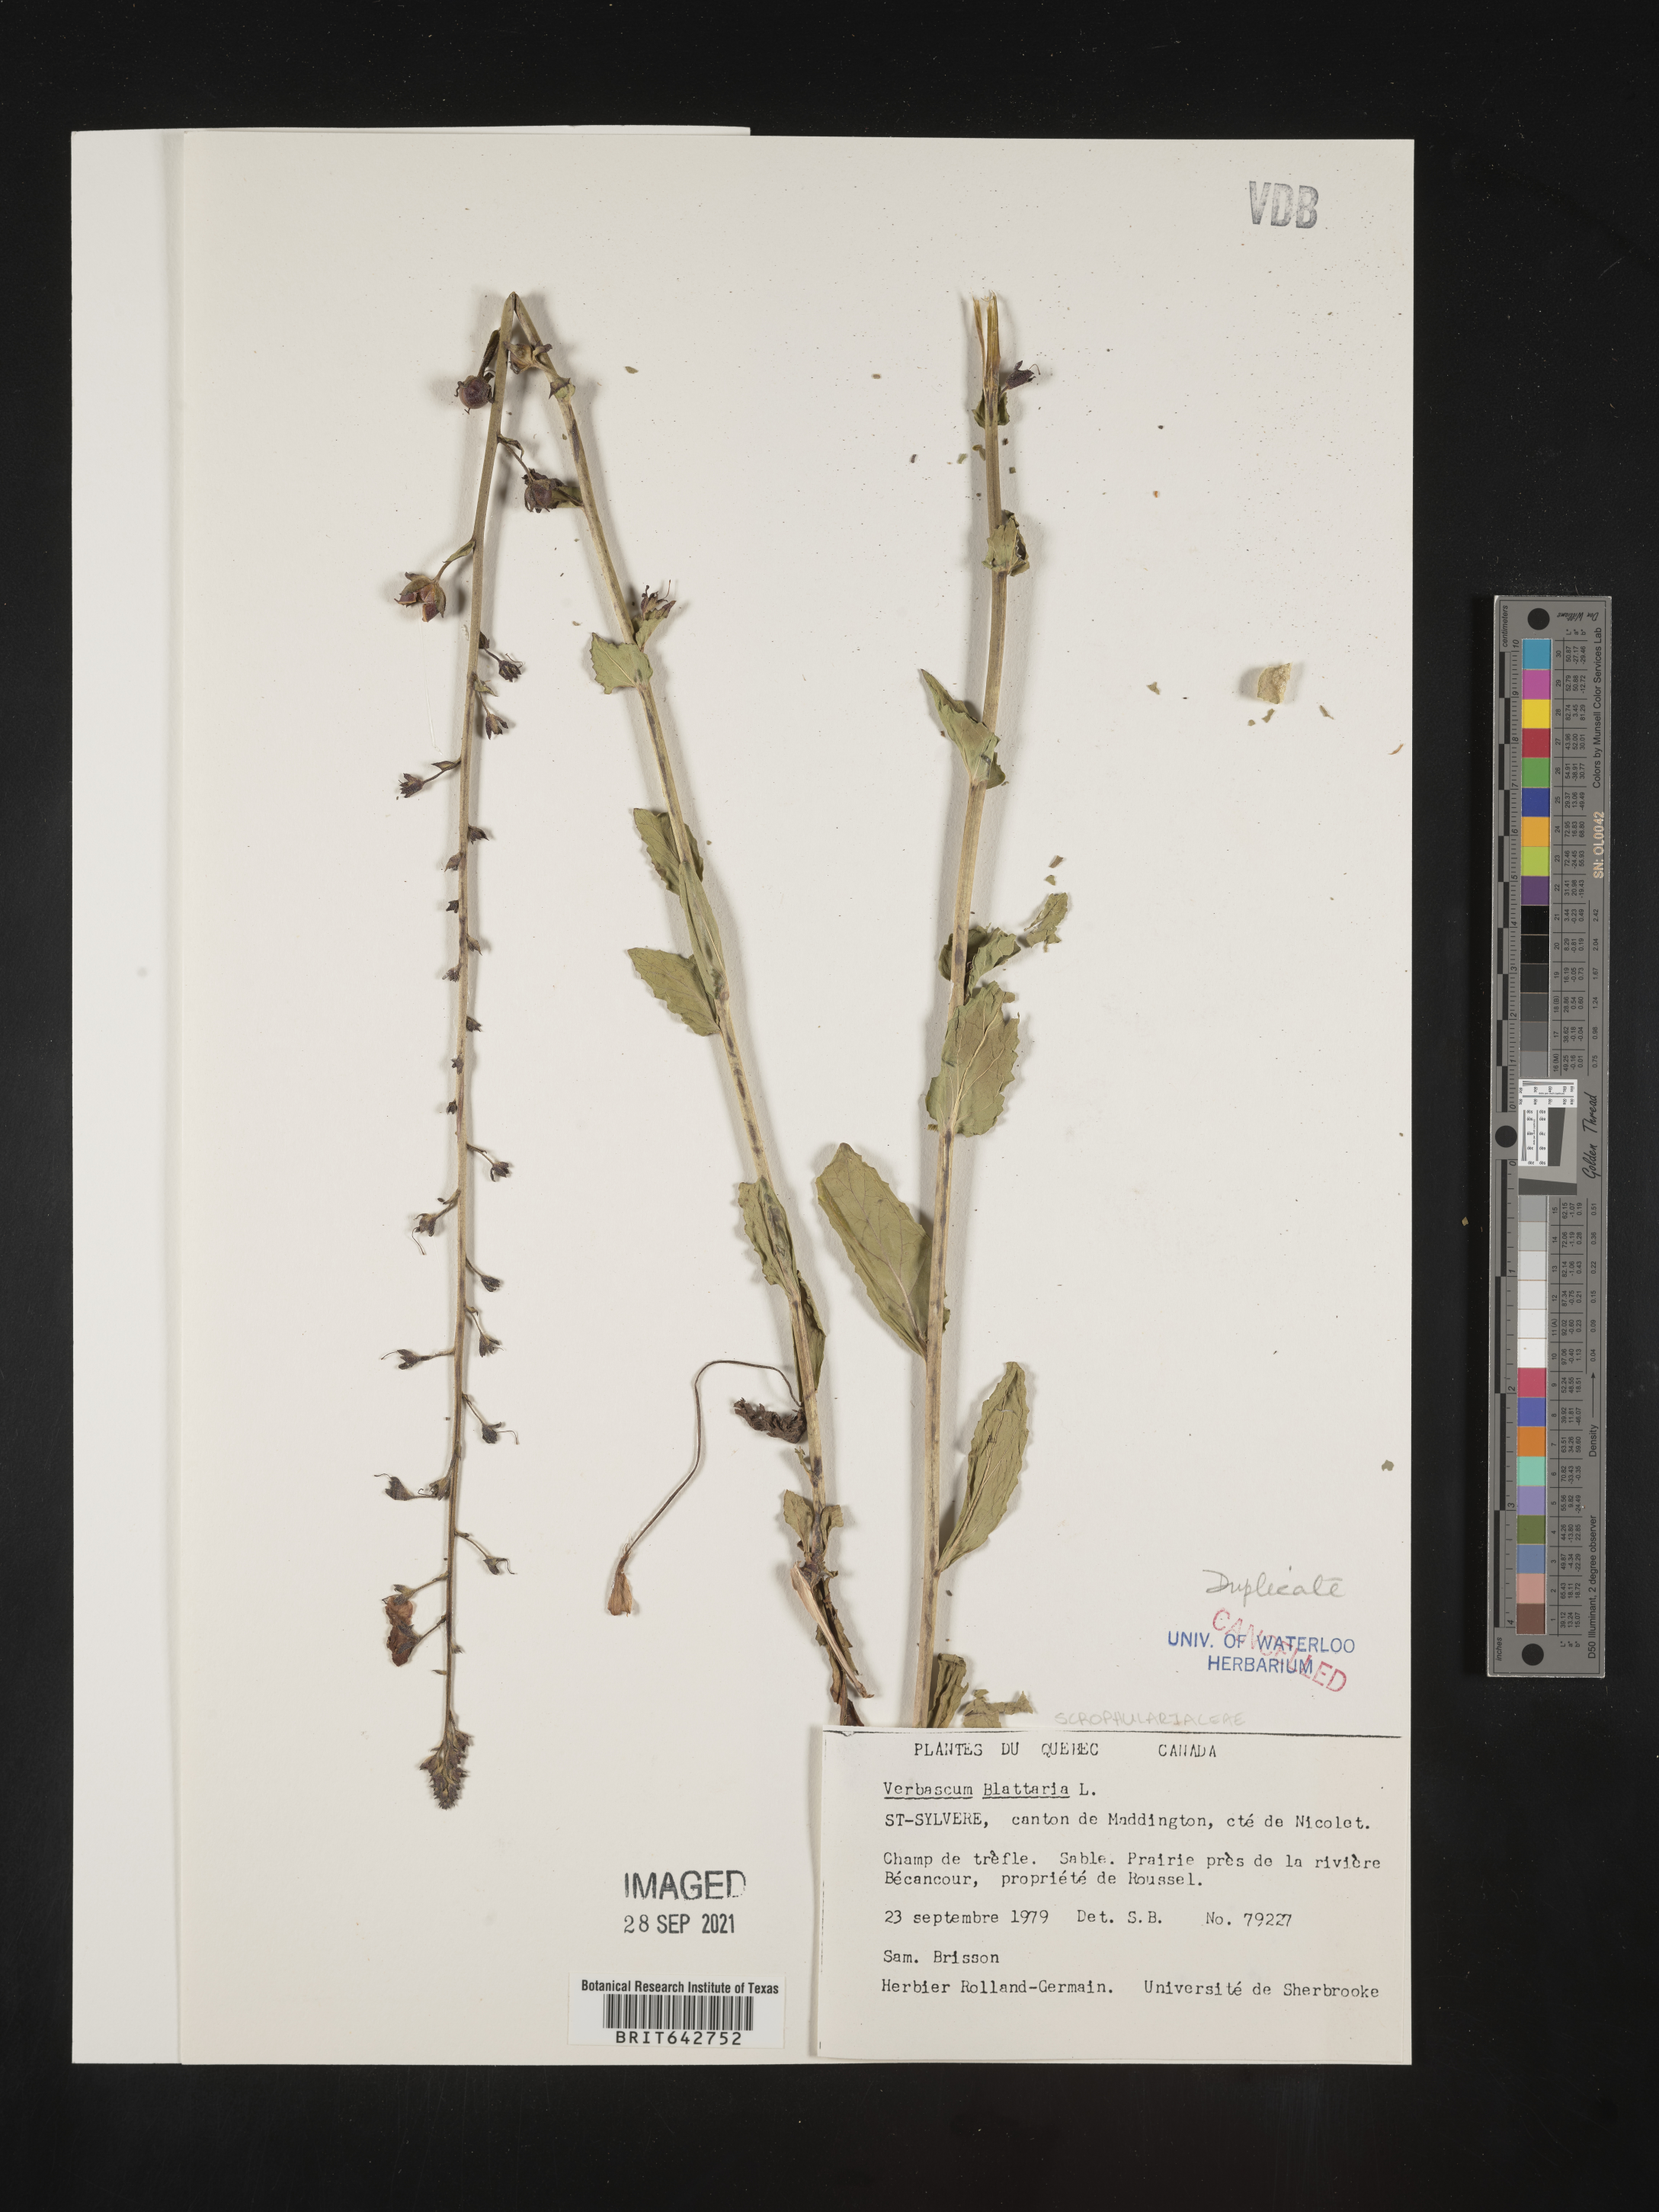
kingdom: Plantae
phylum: Tracheophyta
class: Magnoliopsida
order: Lamiales
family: Scrophulariaceae
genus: Verbascum
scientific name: Verbascum
